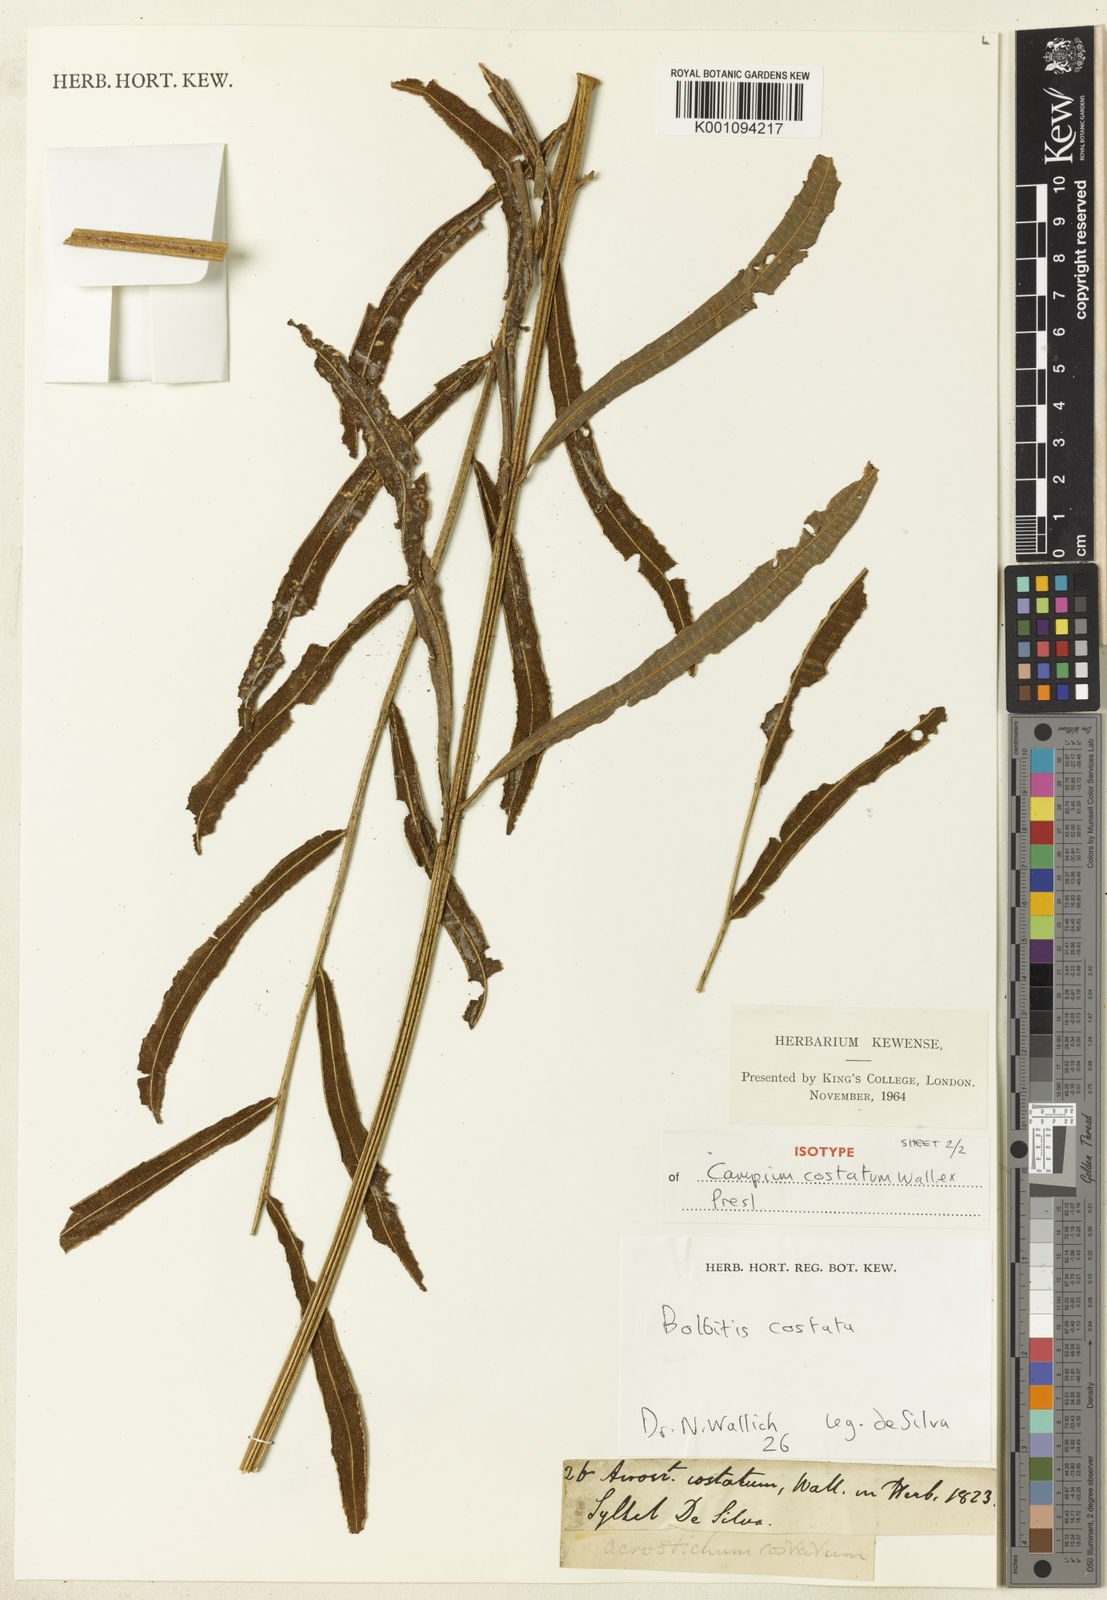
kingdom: Plantae
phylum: Tracheophyta
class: Polypodiopsida
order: Polypodiales
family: Dryopteridaceae
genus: Bolbitis
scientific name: Bolbitis costata
